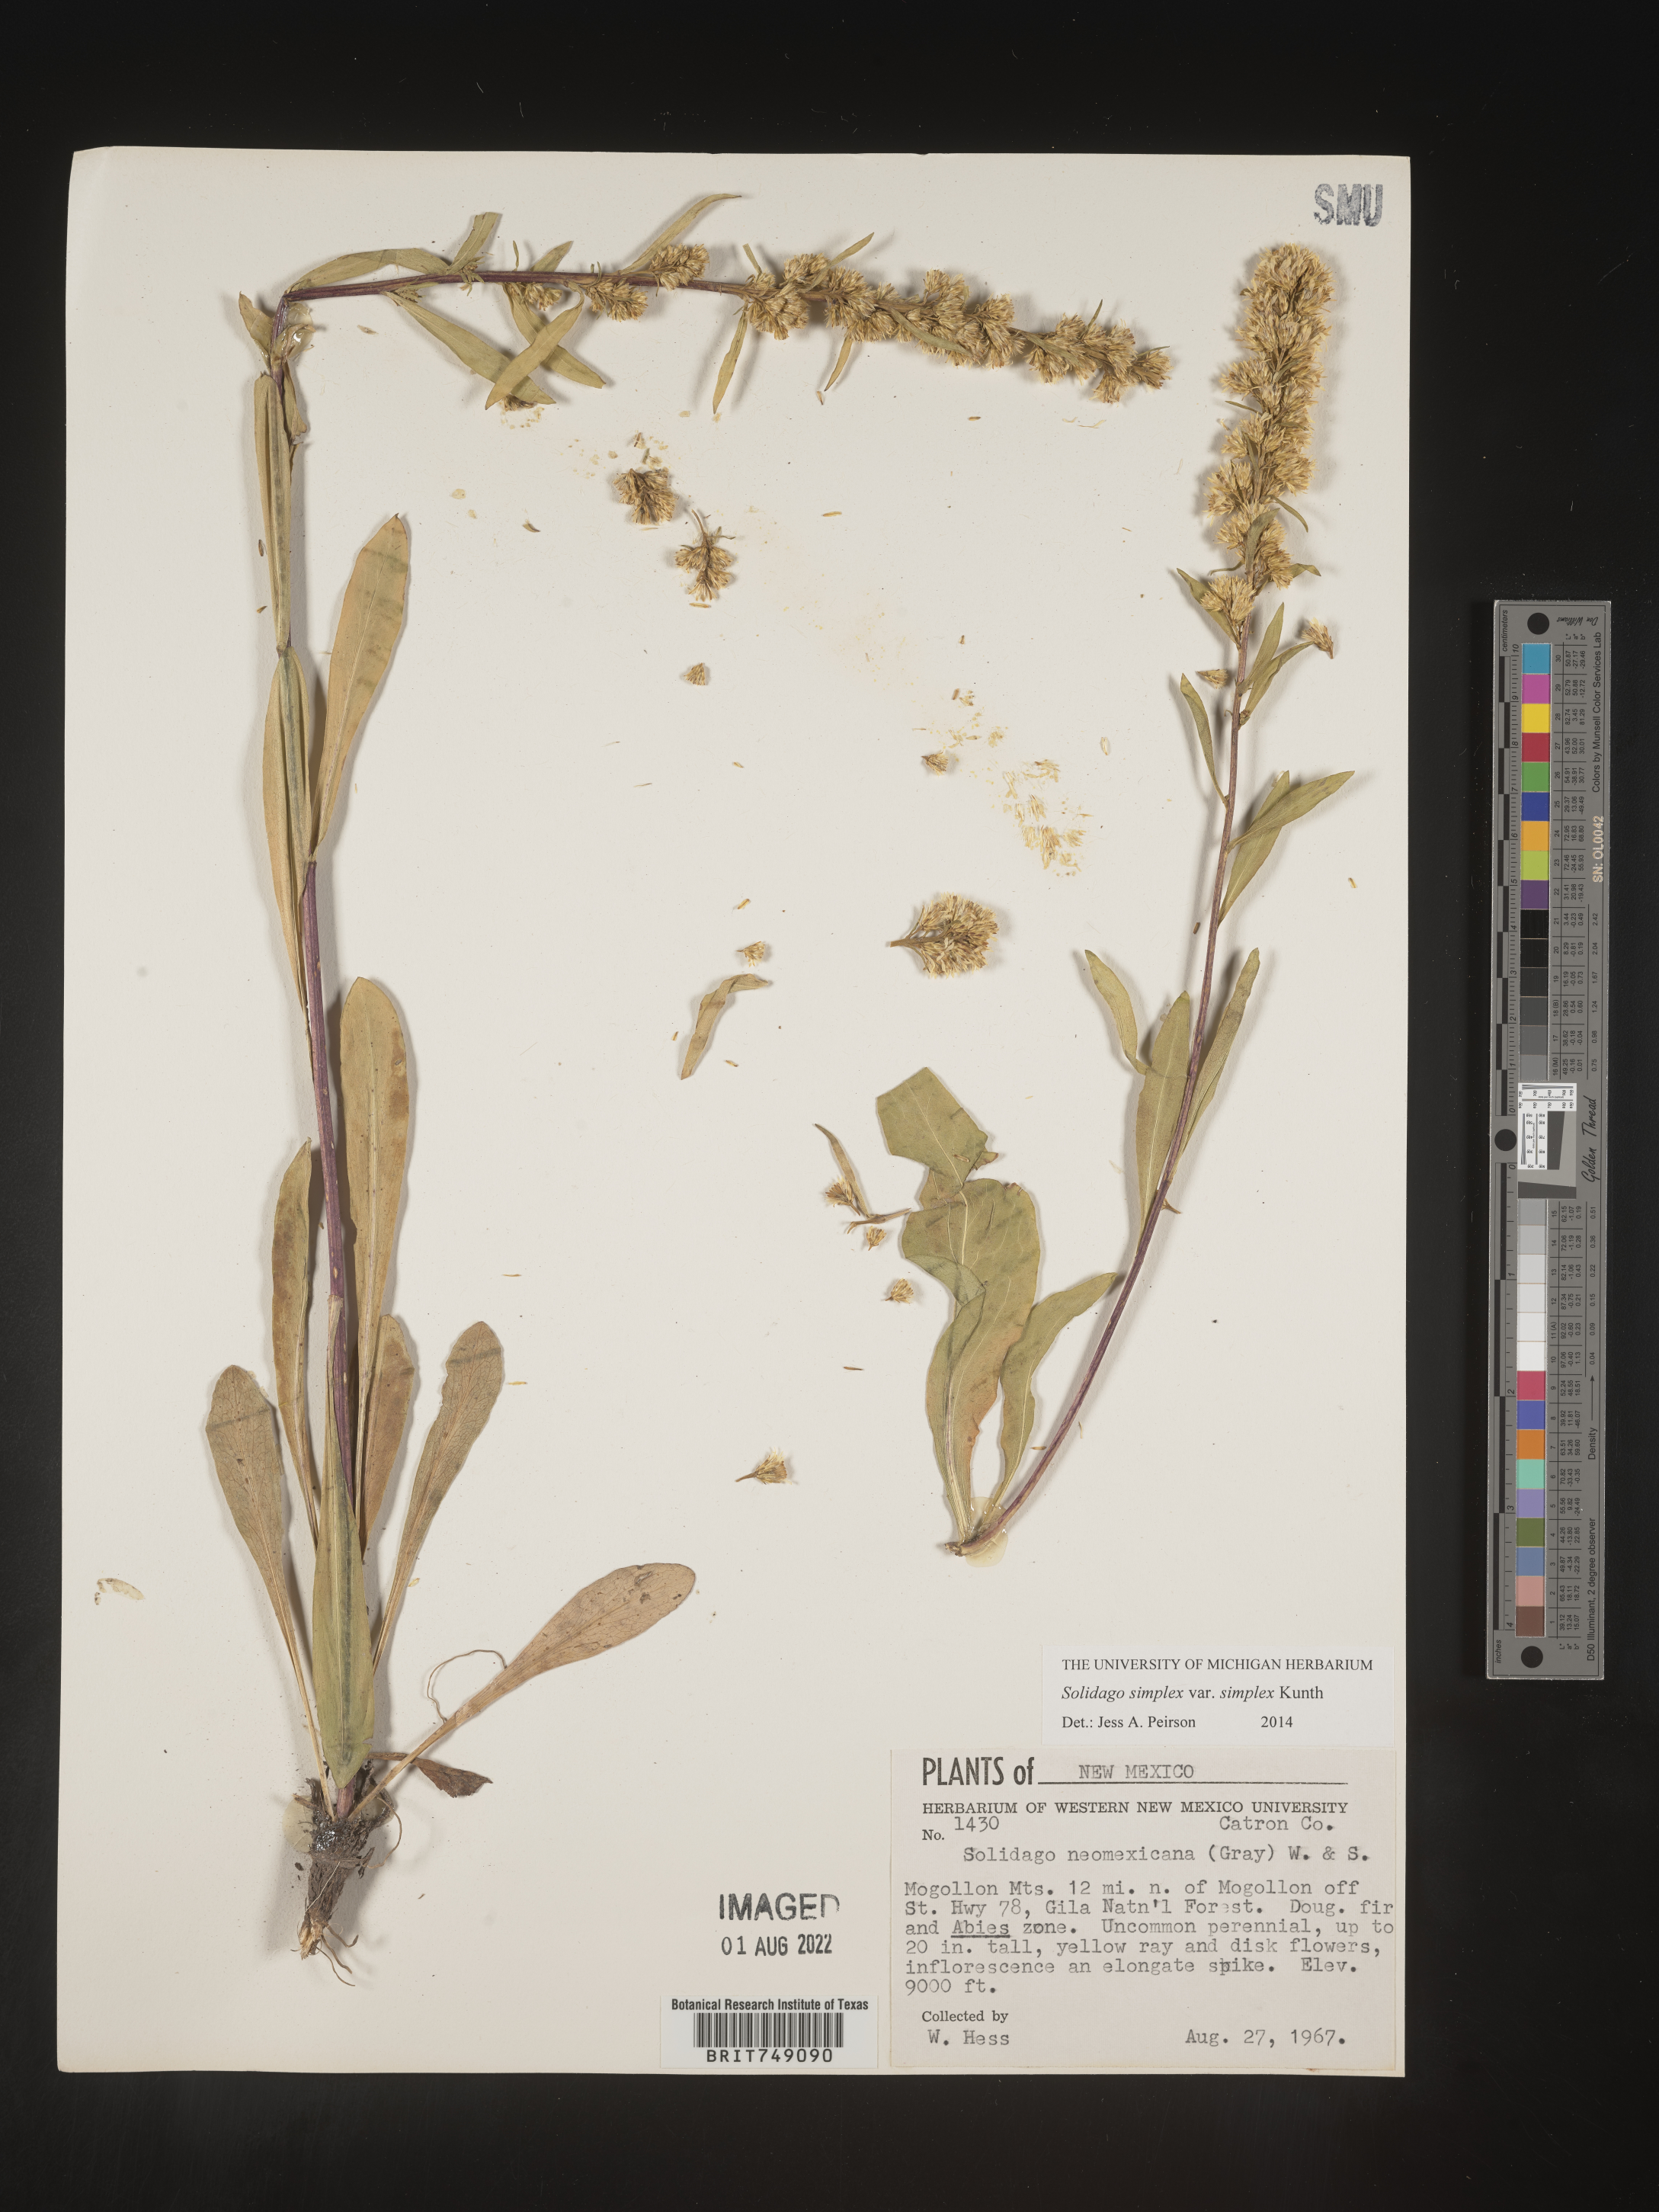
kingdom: Plantae
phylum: Tracheophyta
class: Magnoliopsida
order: Asterales
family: Asteraceae
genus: Solidago
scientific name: Solidago simplex
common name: Sticky goldenrod
